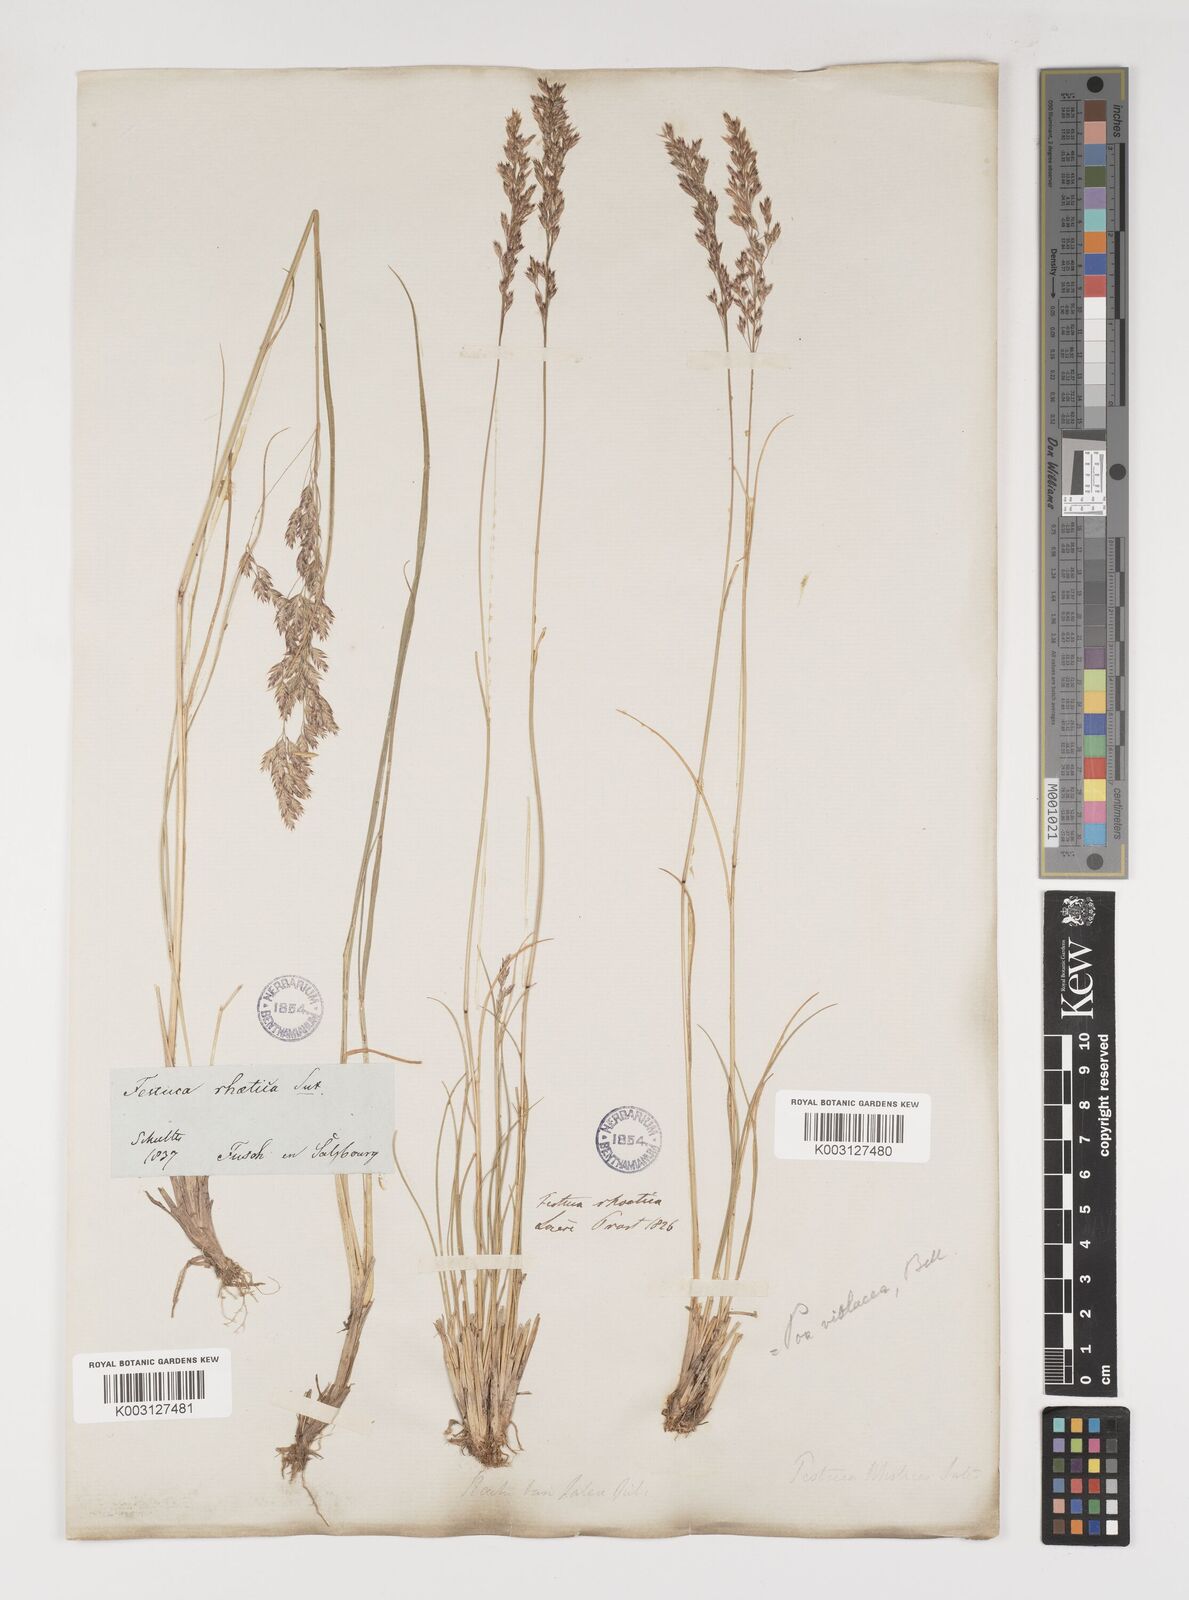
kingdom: Plantae
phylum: Tracheophyta
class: Liliopsida
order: Poales
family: Poaceae
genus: Bellardiochloa
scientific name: Bellardiochloa variegata
